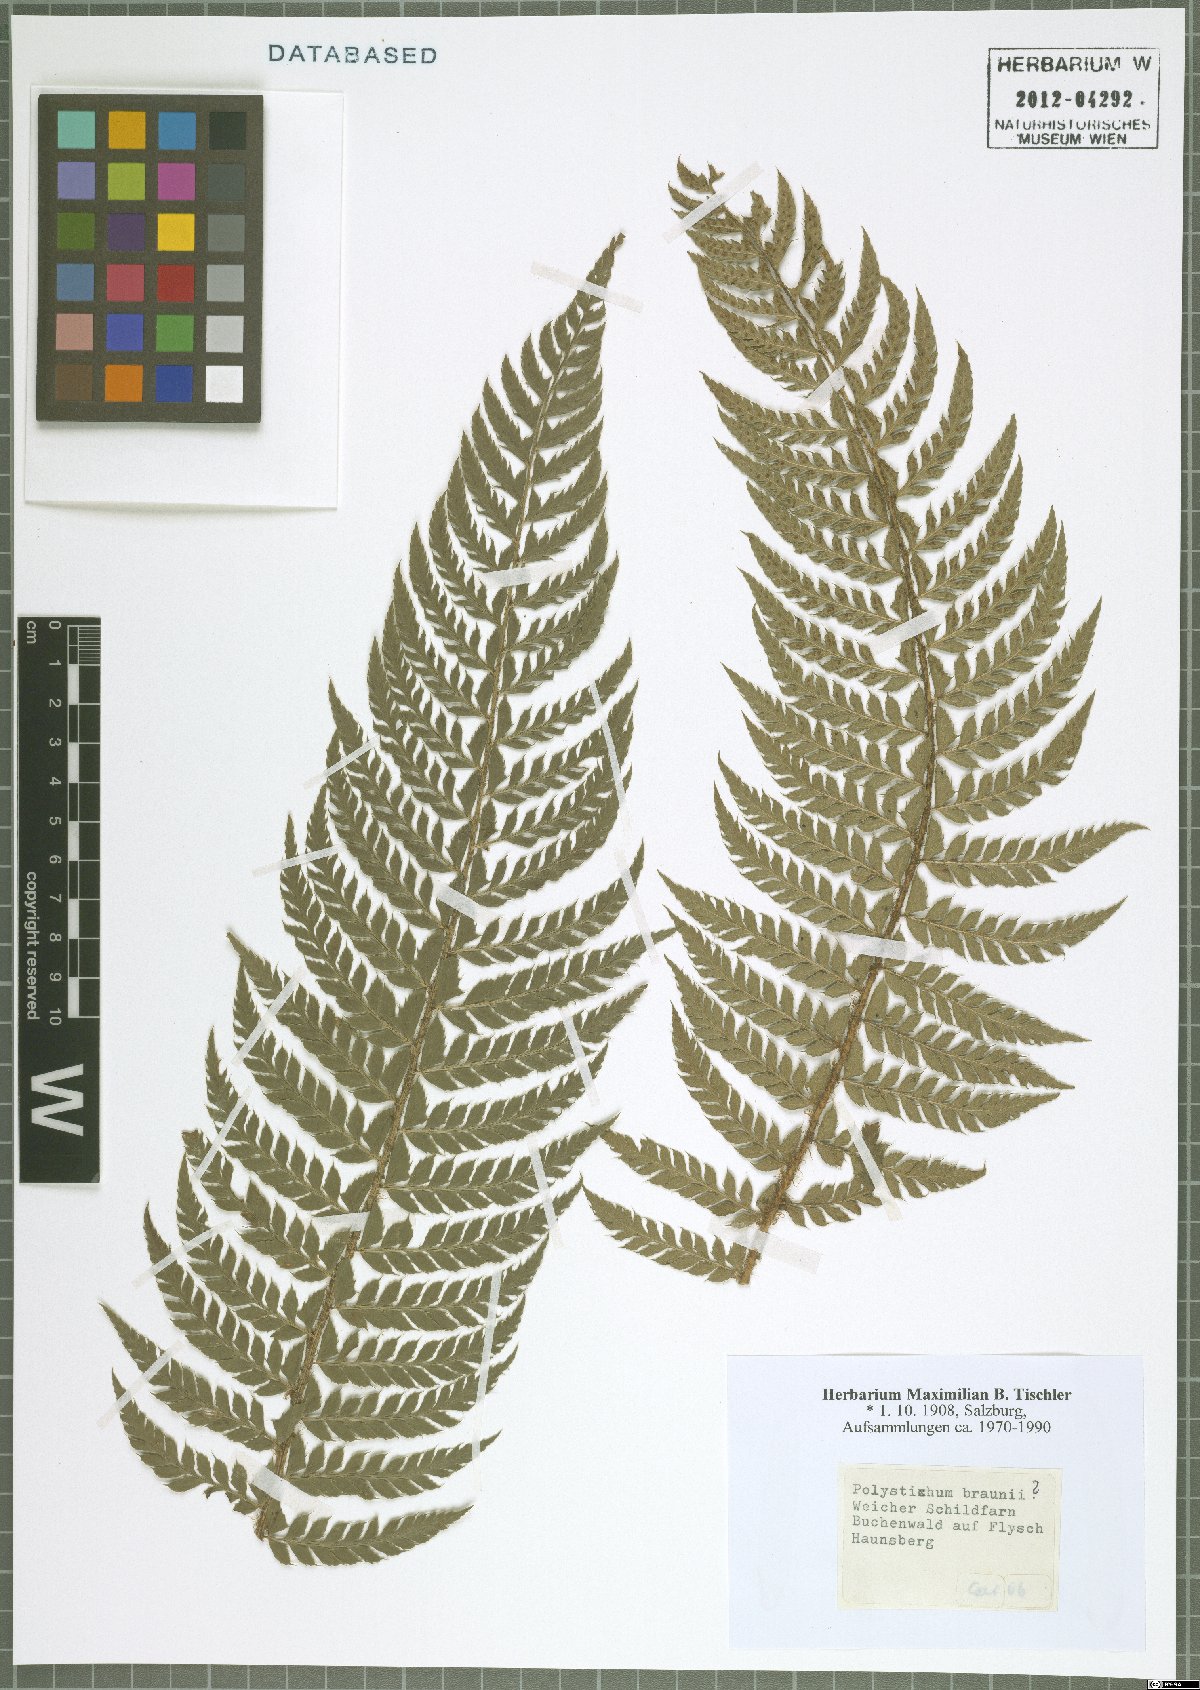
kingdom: Plantae
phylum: Tracheophyta
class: Polypodiopsida
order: Polypodiales
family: Dryopteridaceae
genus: Polystichum
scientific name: Polystichum braunii
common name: Braun's holly fern
